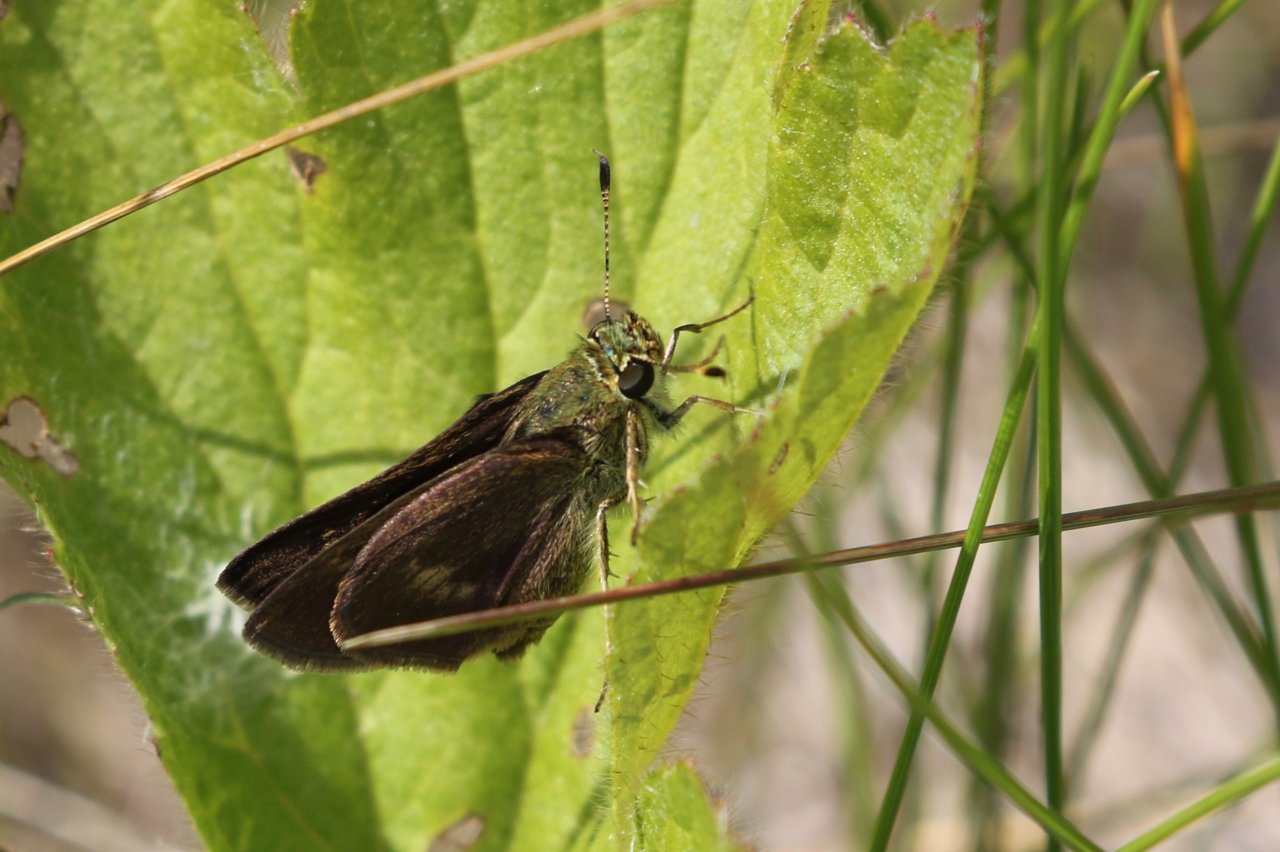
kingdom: Animalia
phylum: Arthropoda
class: Insecta
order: Lepidoptera
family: Hesperiidae
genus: Euphyes
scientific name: Euphyes vestris
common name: Dun Skipper
